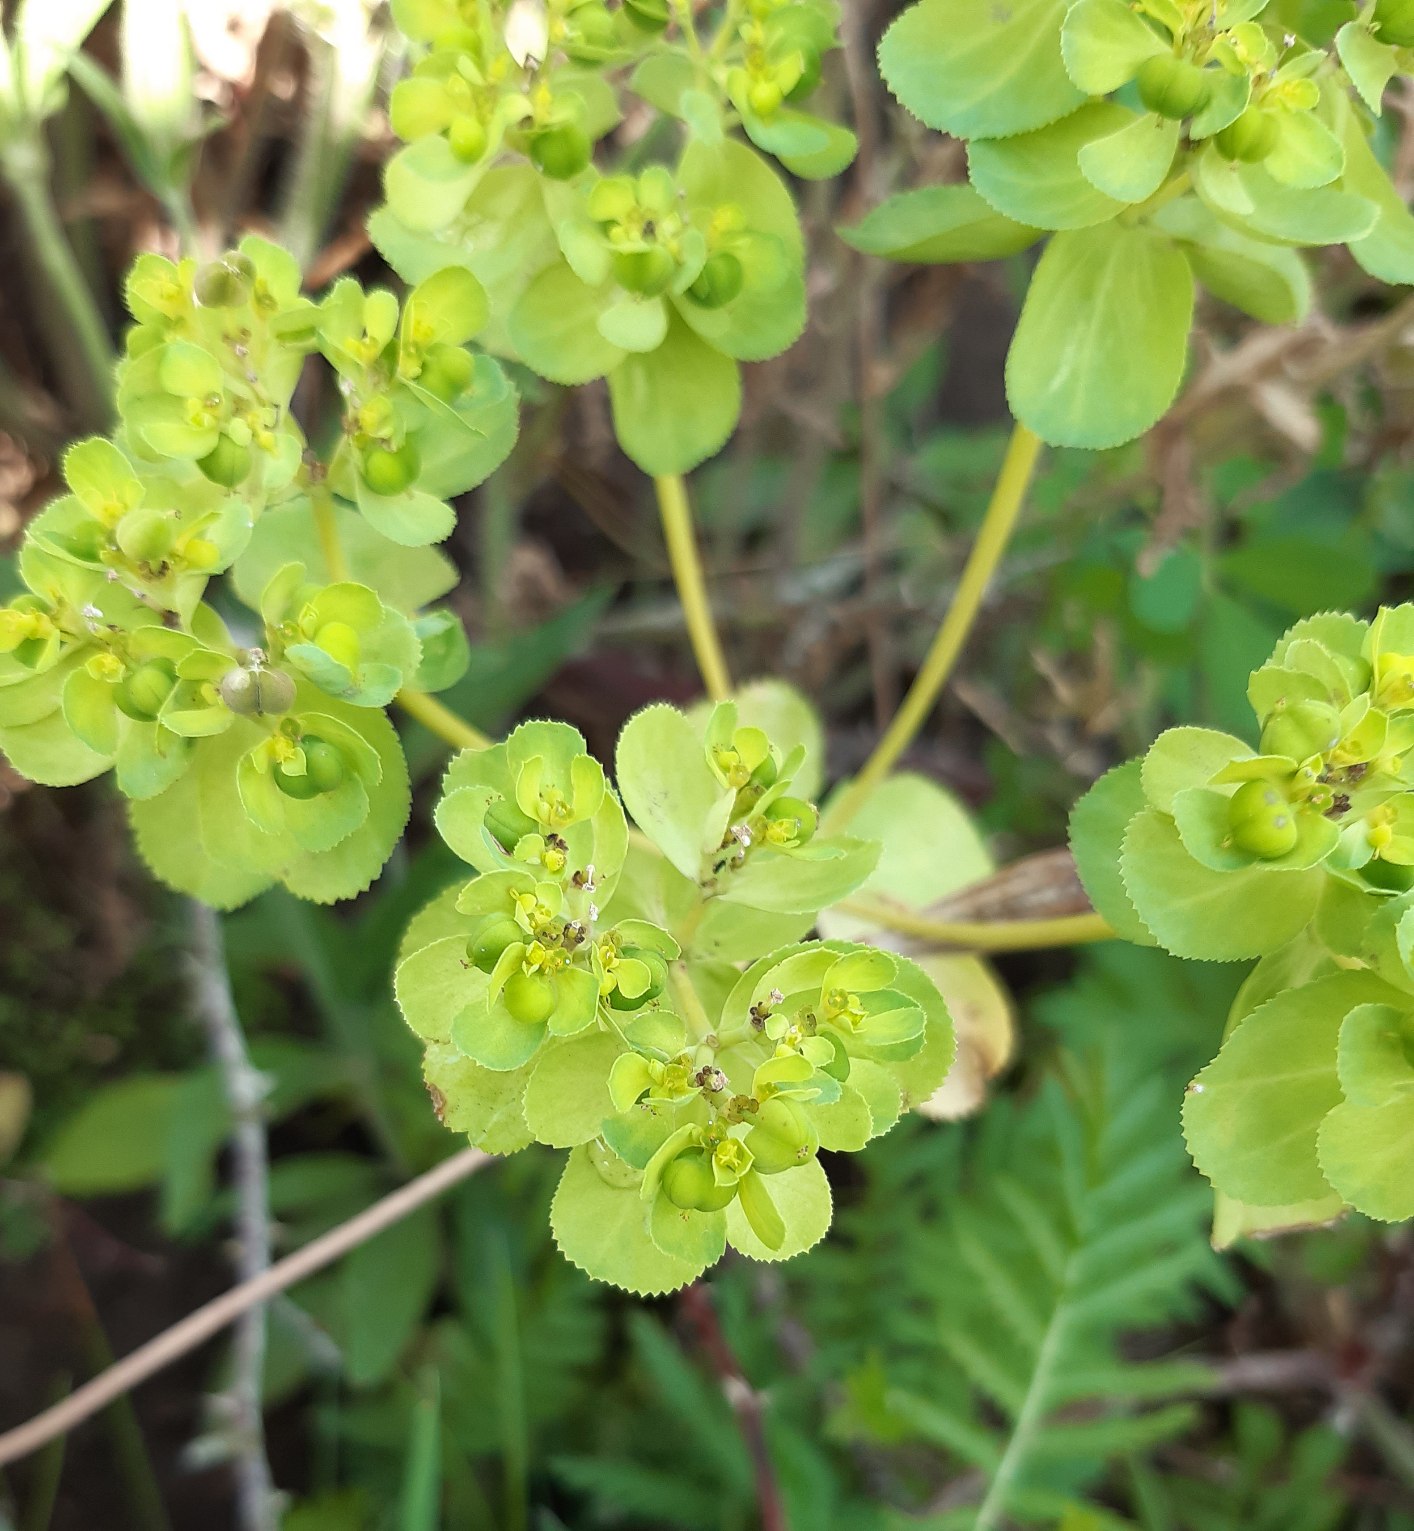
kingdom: Plantae
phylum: Tracheophyta
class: Magnoliopsida
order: Malpighiales
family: Euphorbiaceae
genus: Euphorbia
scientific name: Euphorbia helioscopia
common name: Skærm-vortemælk
